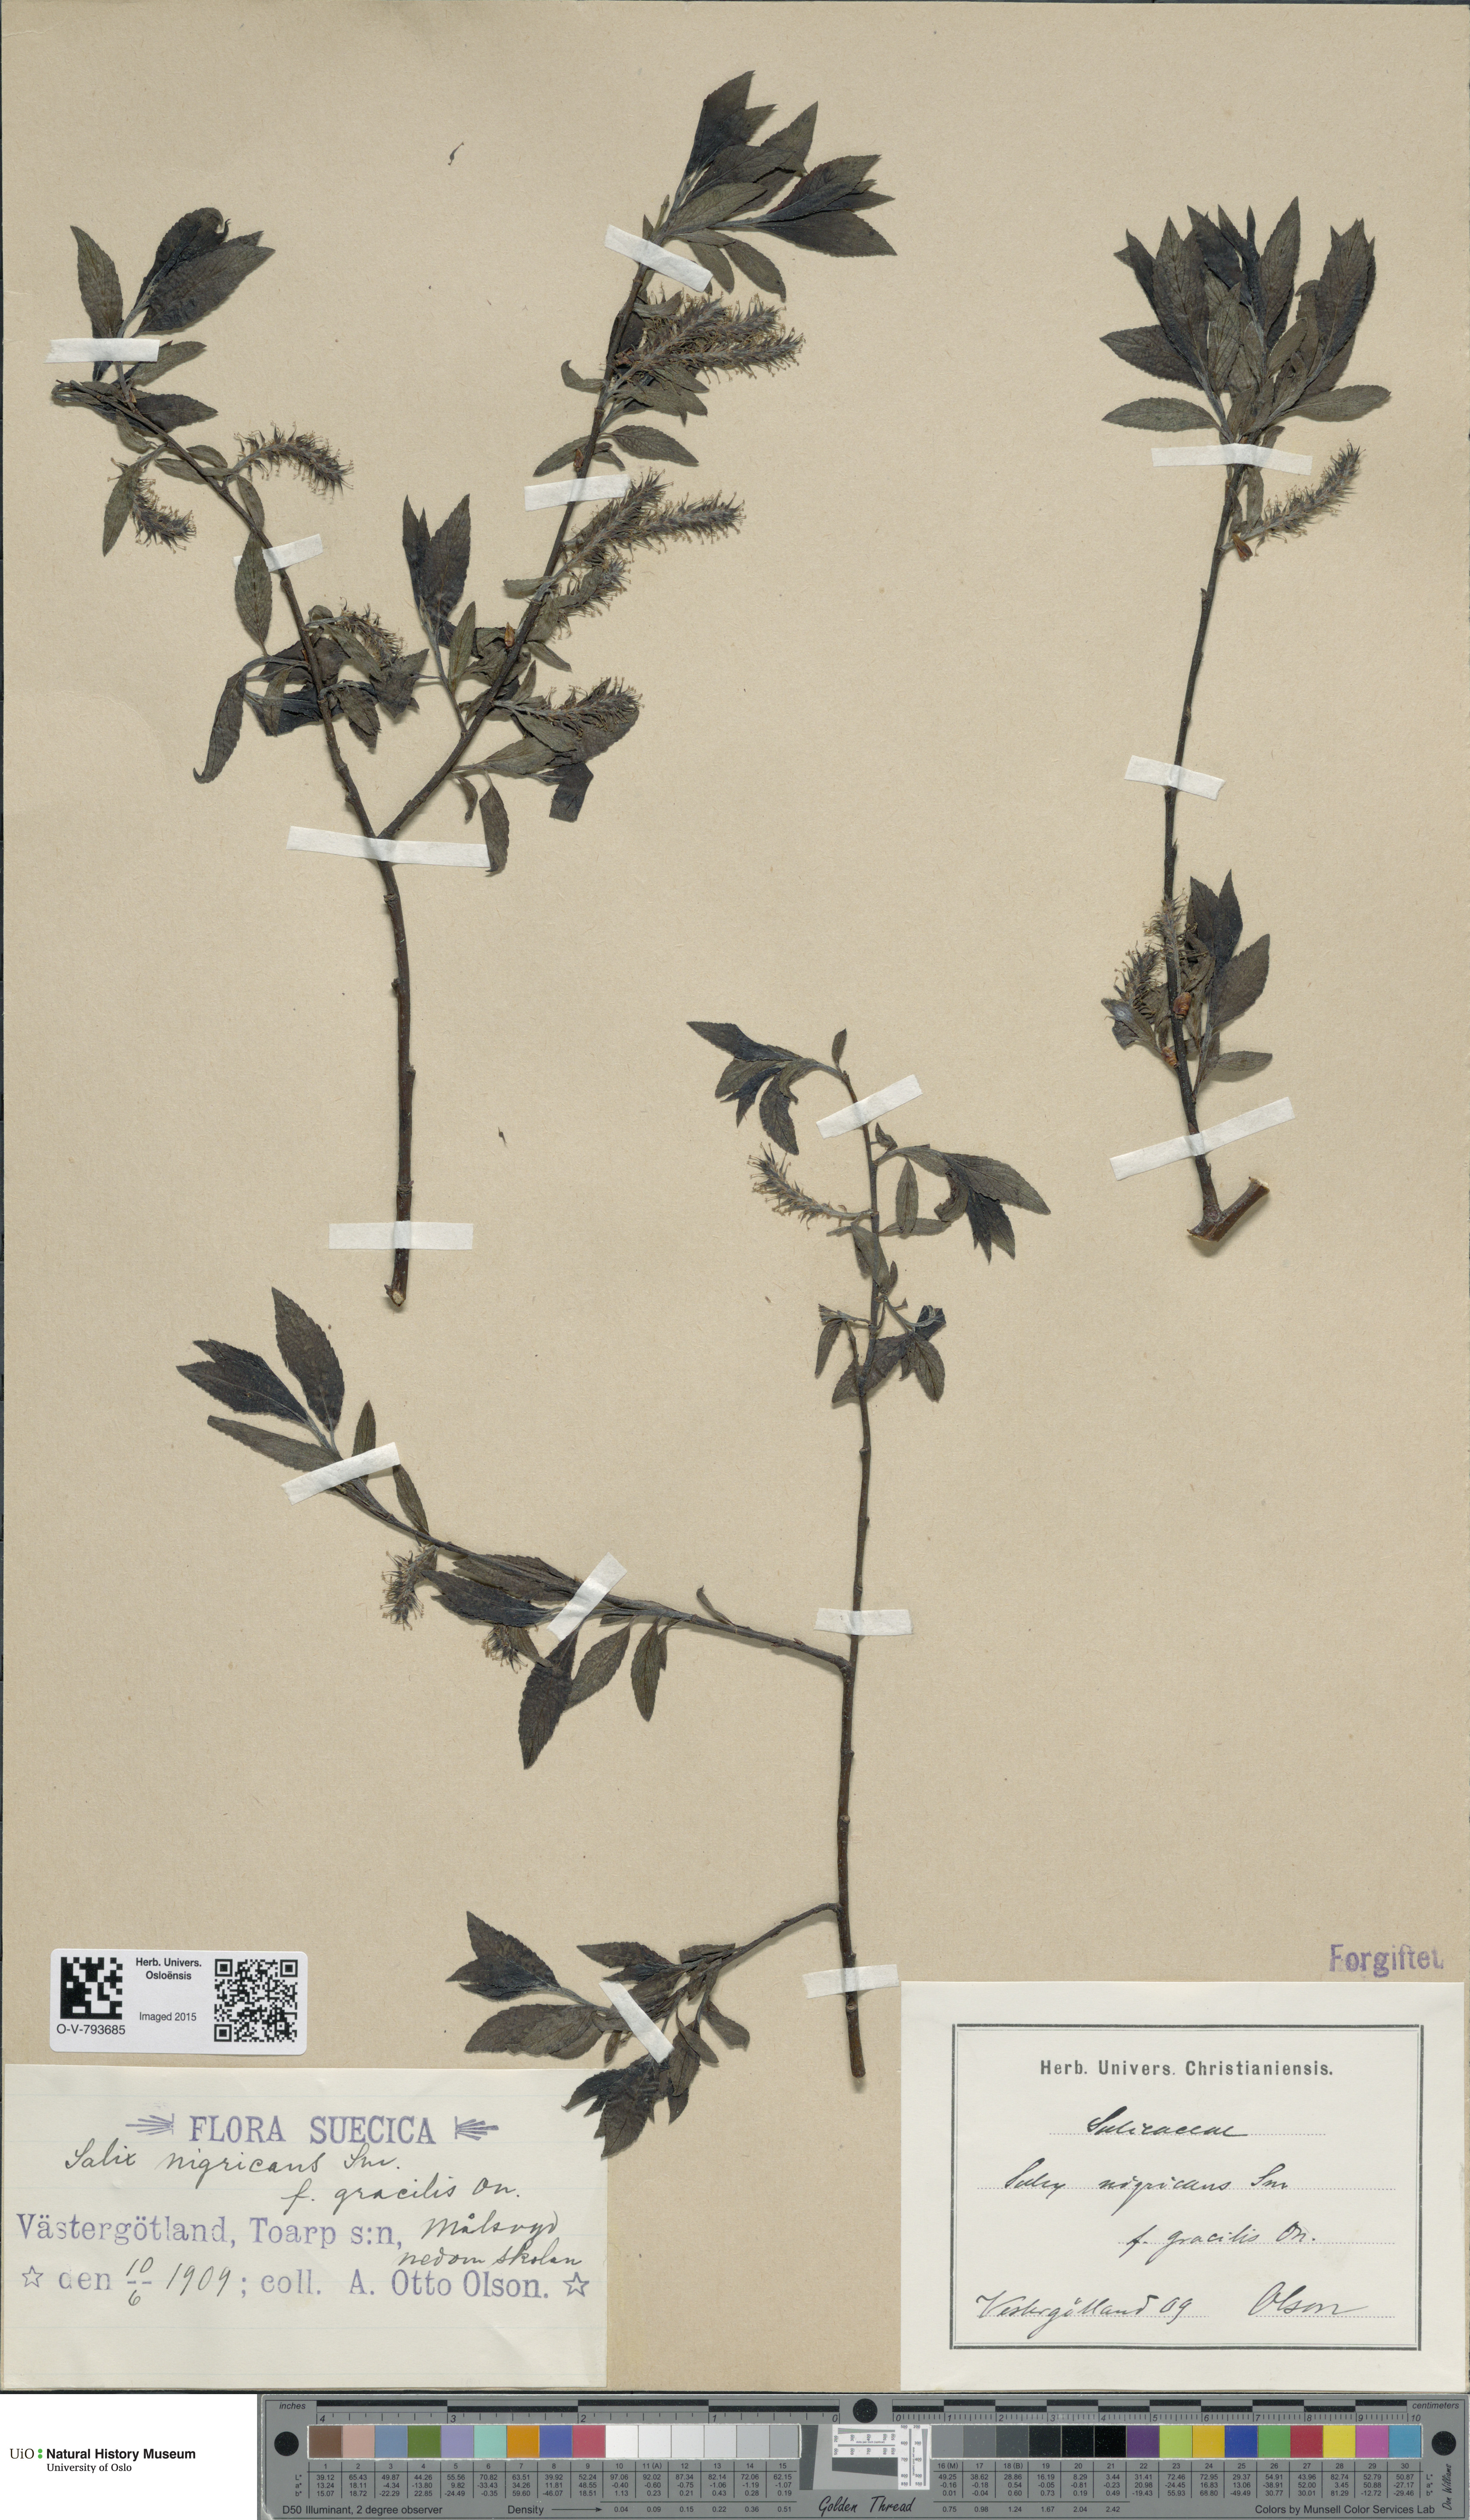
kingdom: Plantae
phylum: Tracheophyta
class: Magnoliopsida
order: Malpighiales
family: Salicaceae
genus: Salix
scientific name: Salix myrsinifolia
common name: Dark-leaved willow
